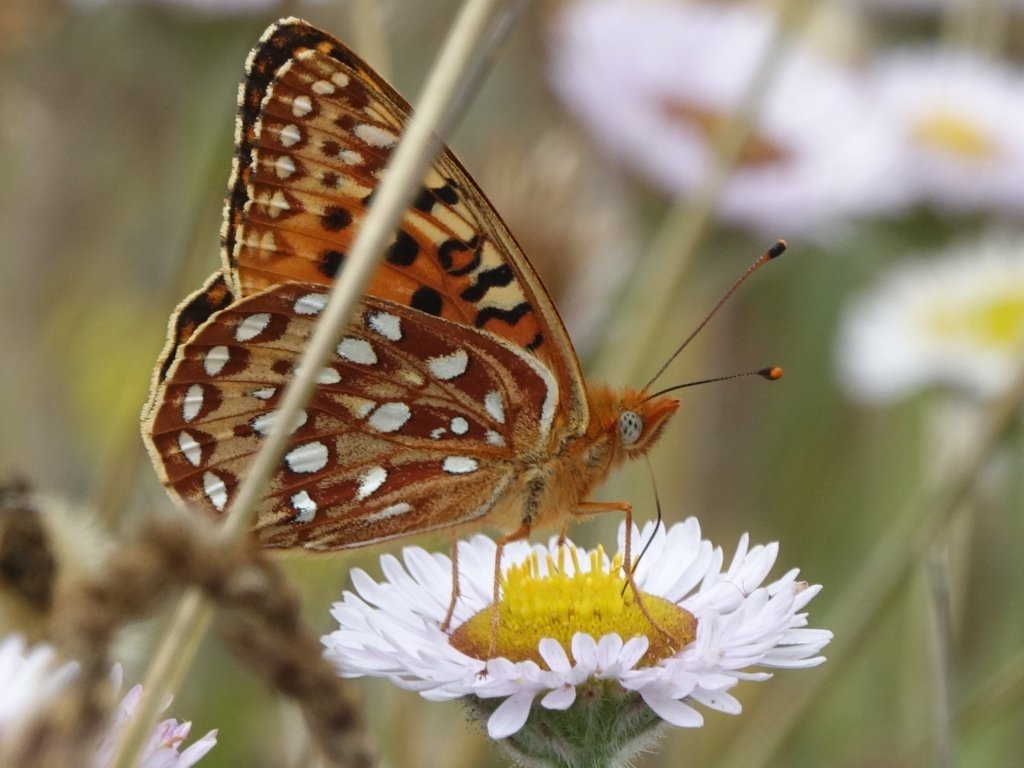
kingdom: Animalia
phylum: Arthropoda
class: Insecta
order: Lepidoptera
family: Nymphalidae
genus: Speyeria
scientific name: Speyeria zerene
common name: Zerene Fritillary
